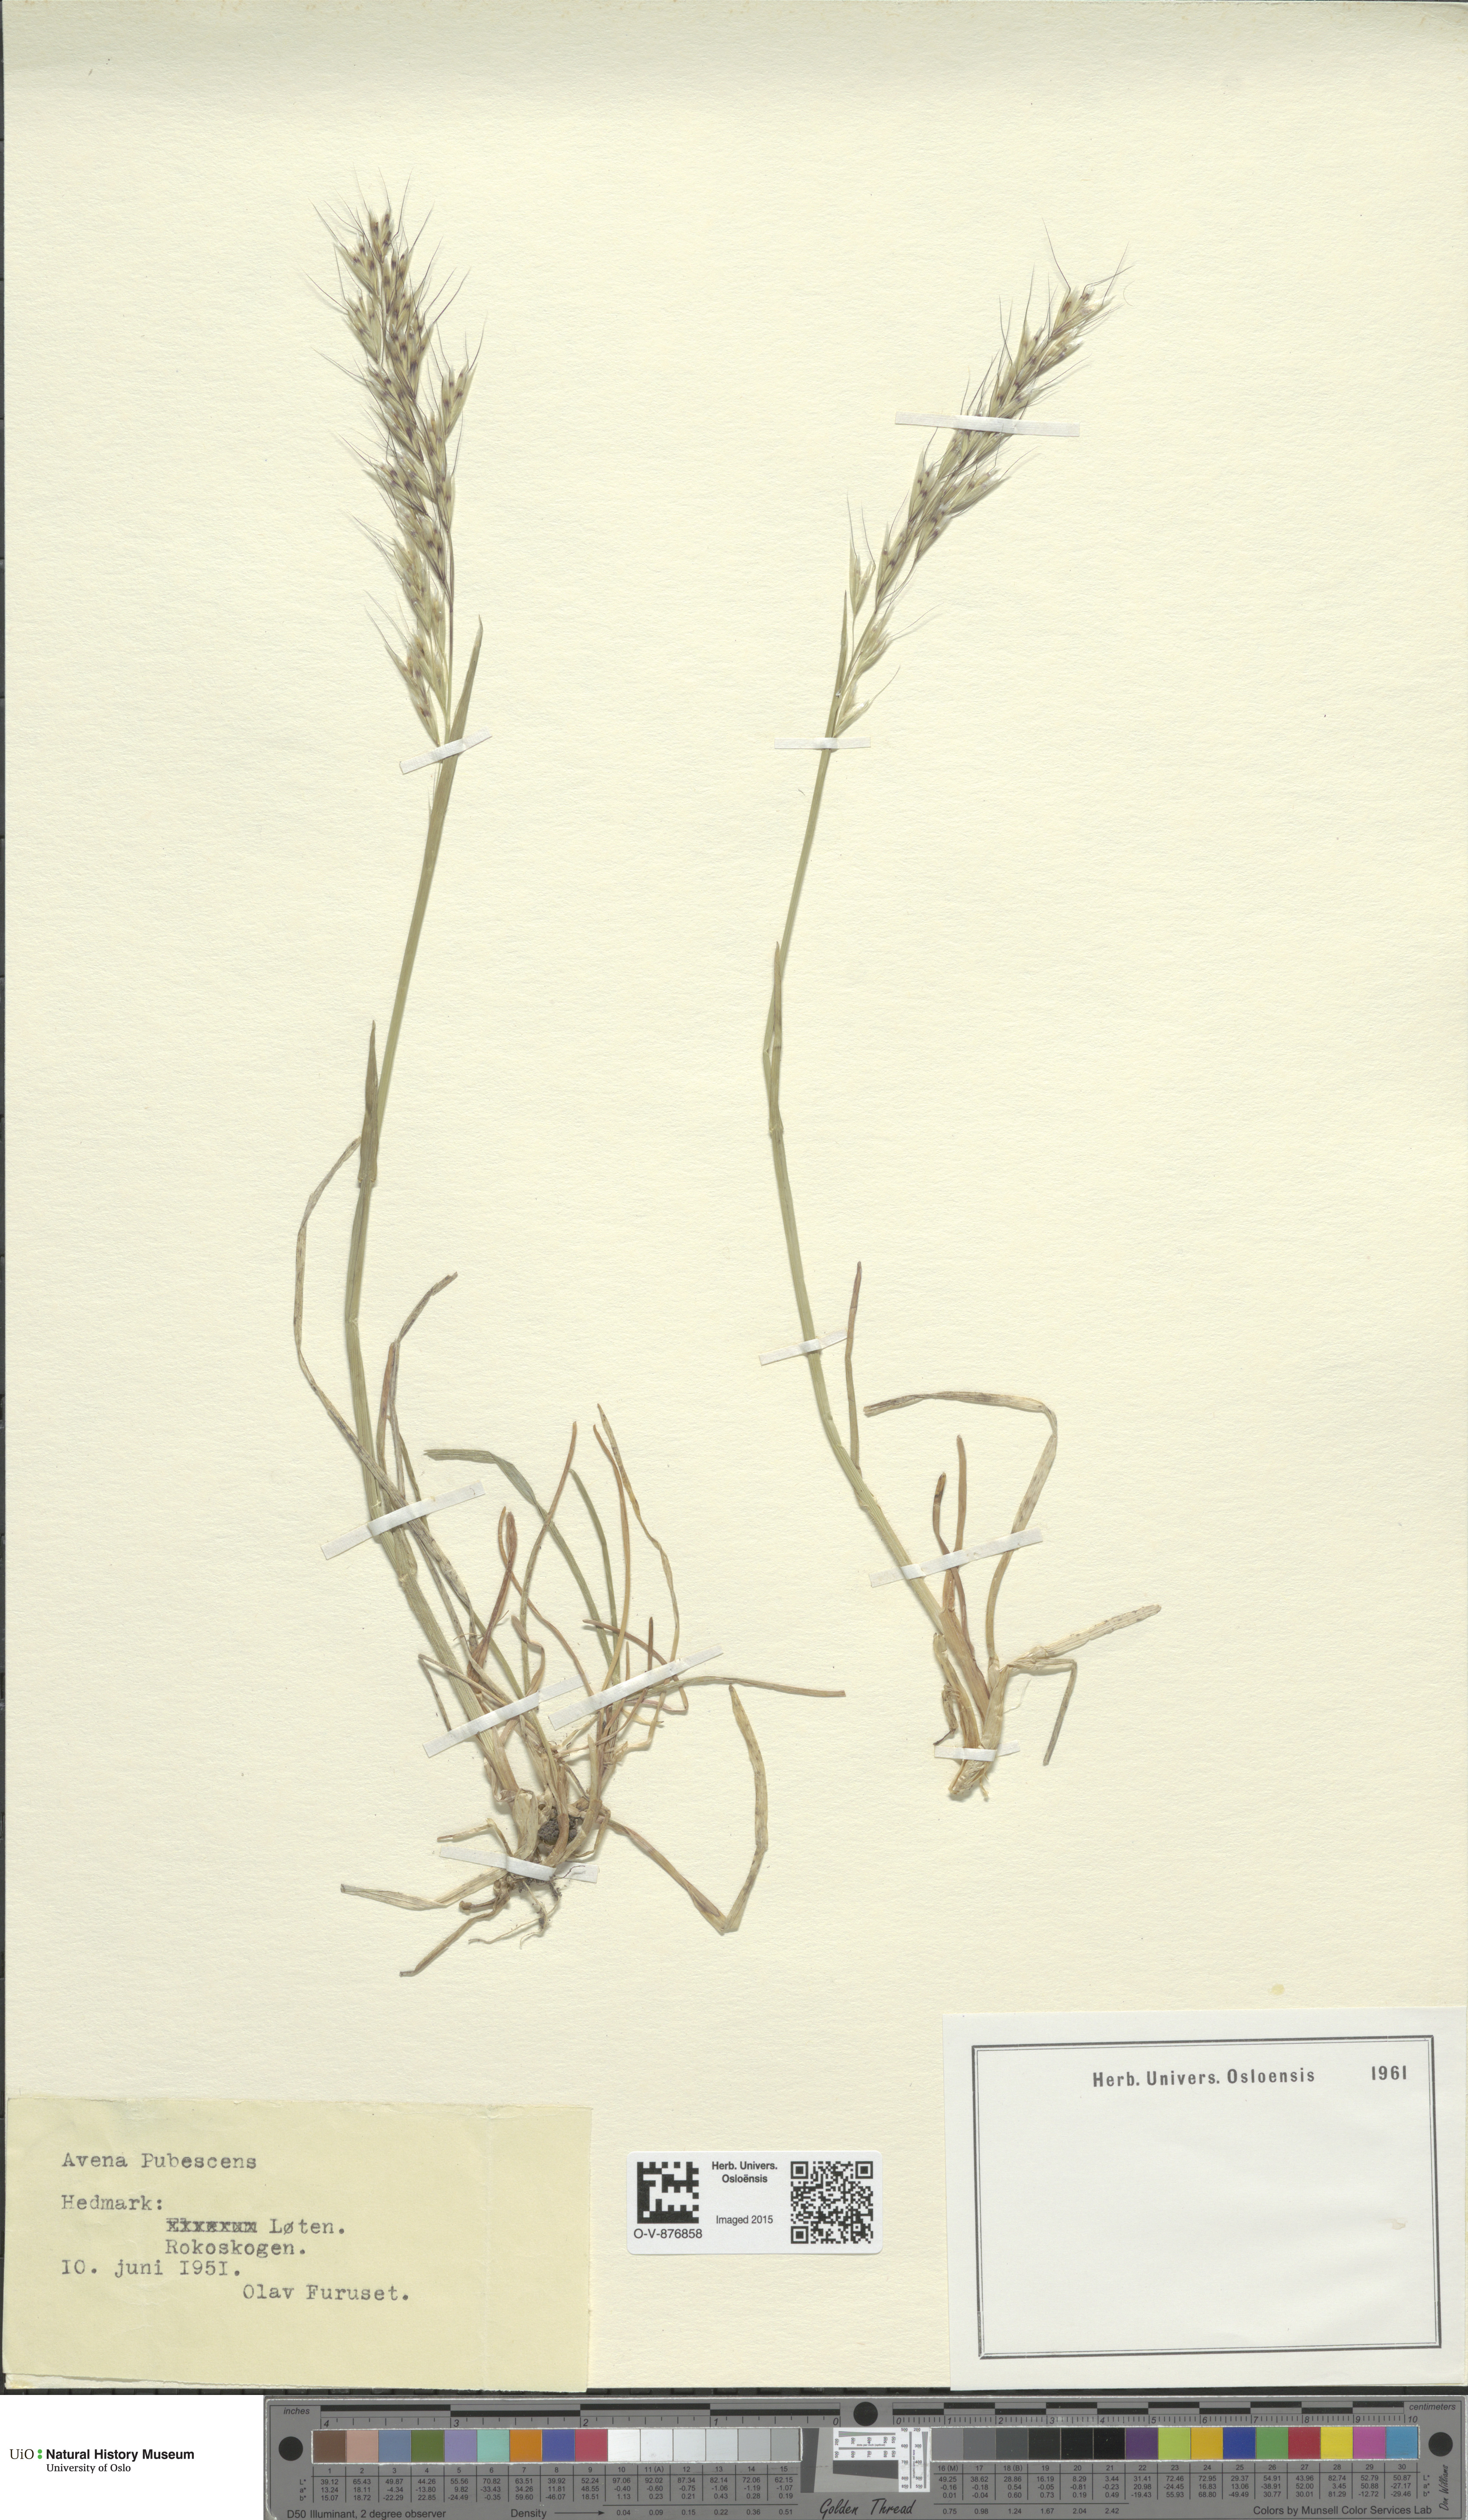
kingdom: Plantae
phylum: Tracheophyta
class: Liliopsida
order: Poales
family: Poaceae
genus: Avenula
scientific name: Avenula pubescens
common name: Downy alpine oatgrass
